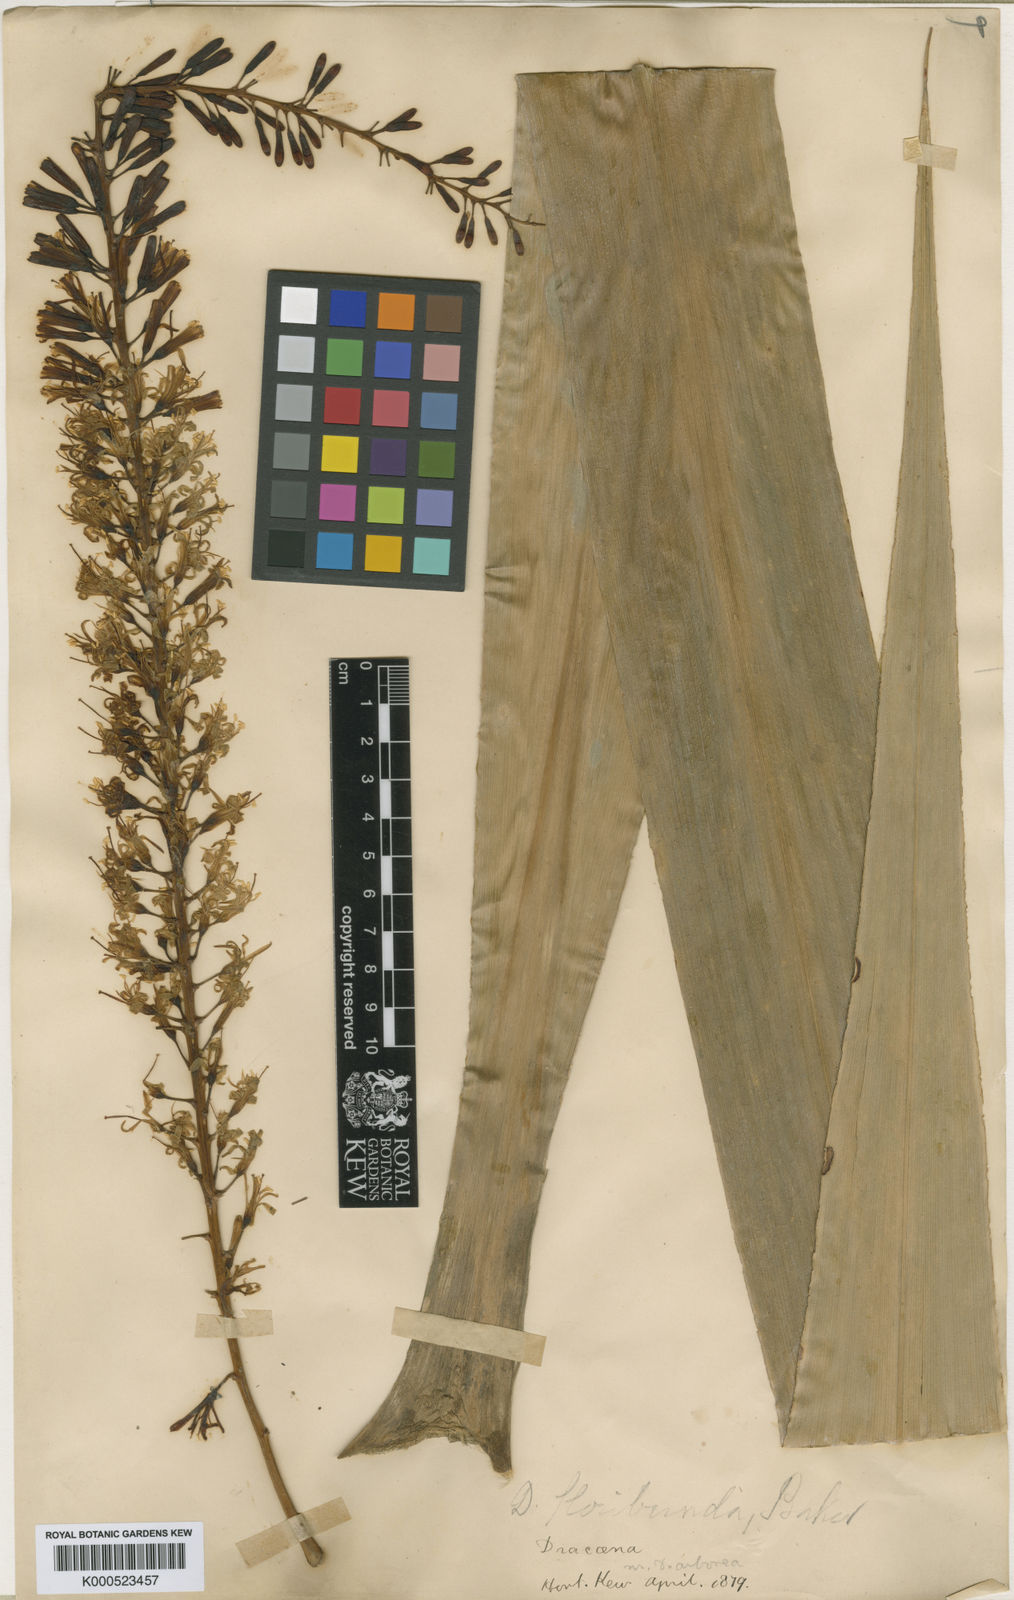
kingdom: Plantae
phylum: Tracheophyta
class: Liliopsida
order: Asparagales
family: Asparagaceae
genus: Dracaena
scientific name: Dracaena floribunda
